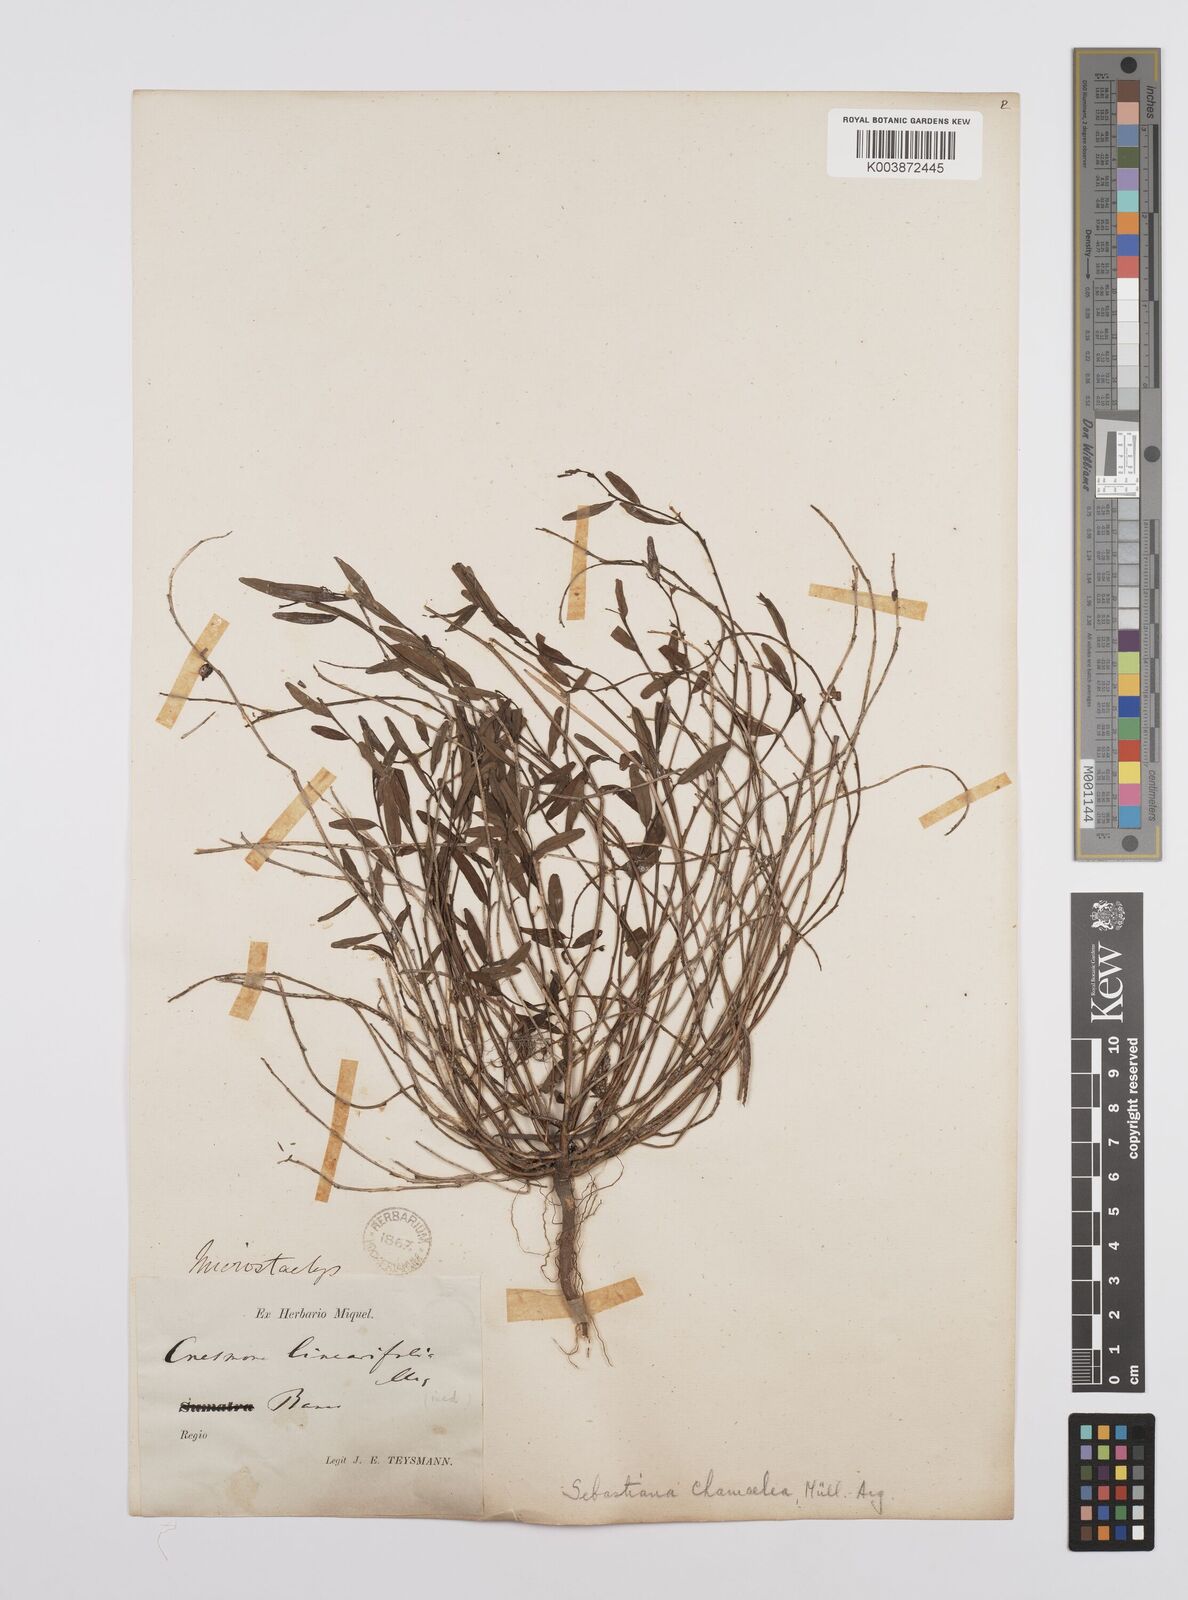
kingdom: Plantae
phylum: Tracheophyta
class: Magnoliopsida
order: Malpighiales
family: Euphorbiaceae
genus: Microstachys
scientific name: Microstachys chamaelea
